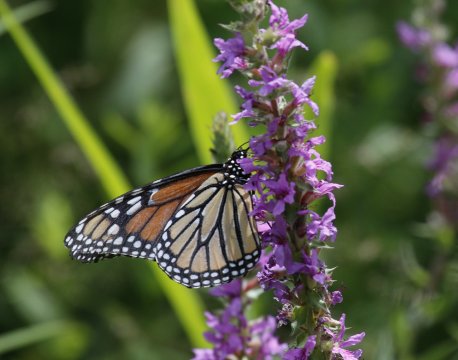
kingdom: Animalia
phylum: Arthropoda
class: Insecta
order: Lepidoptera
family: Nymphalidae
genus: Danaus
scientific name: Danaus plexippus
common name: Monarch
